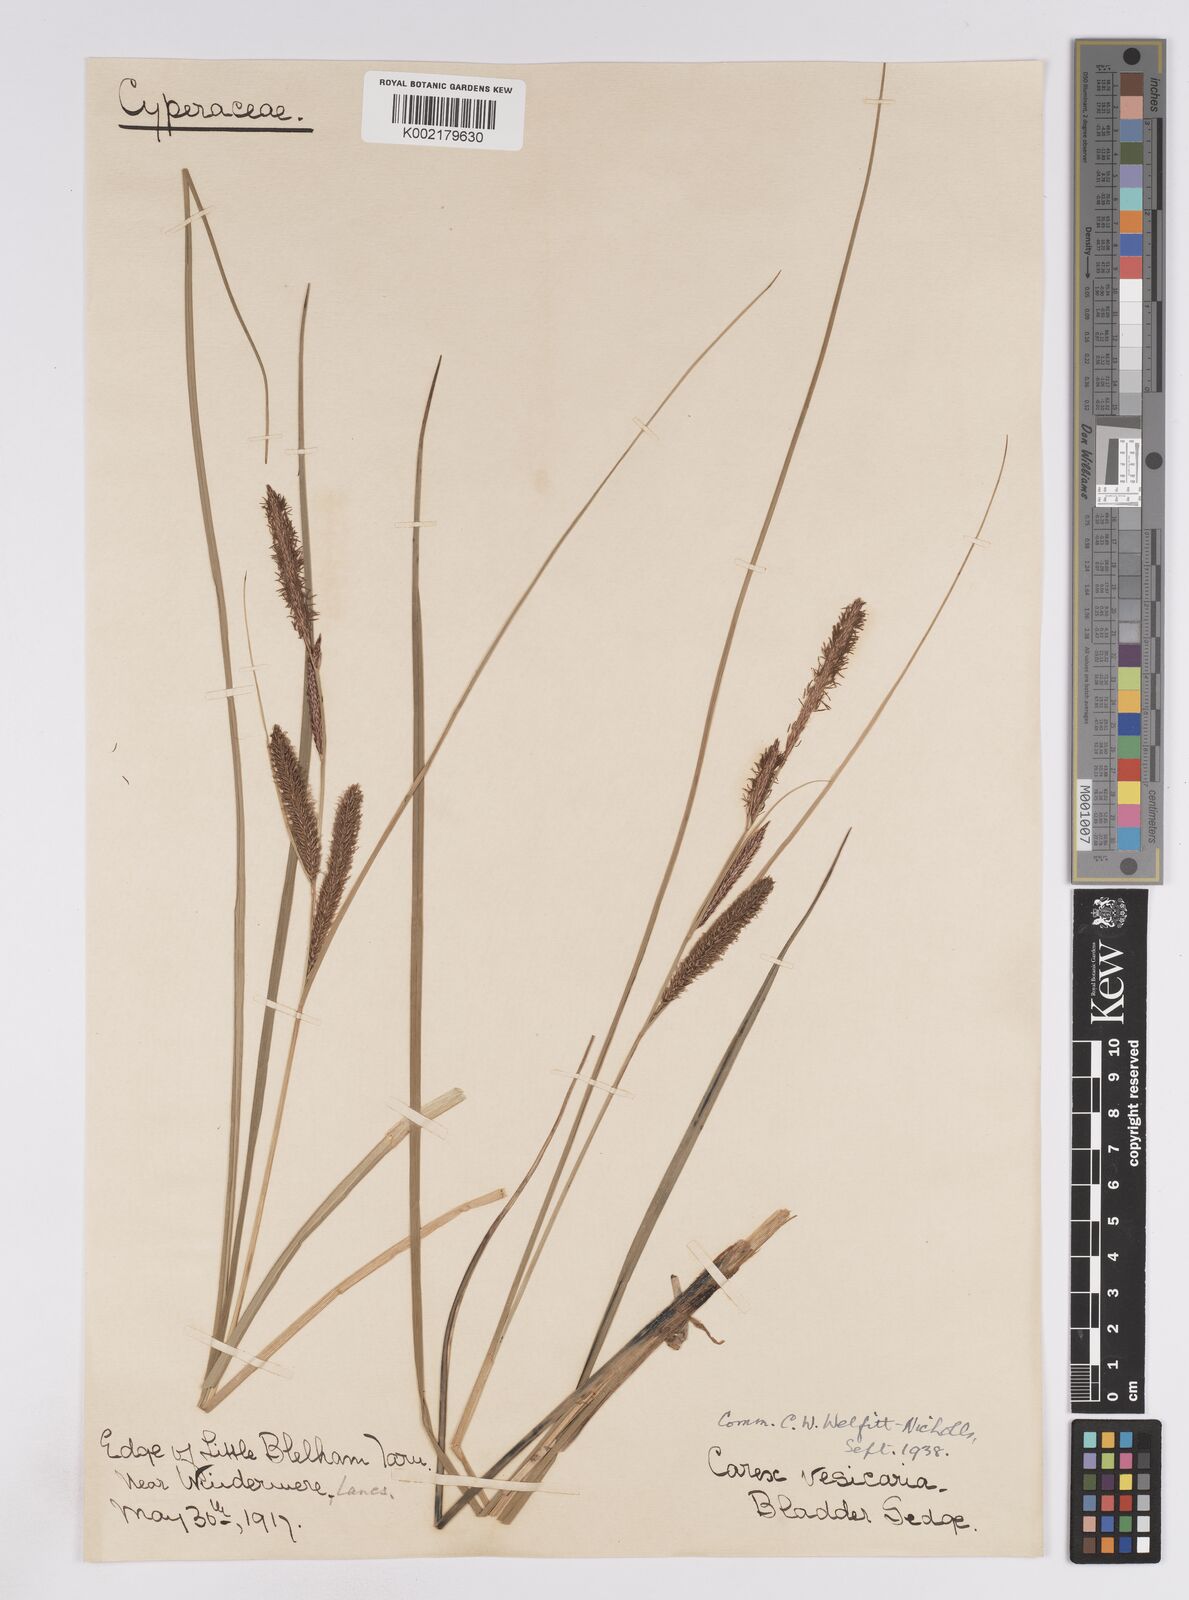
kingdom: Plantae
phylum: Tracheophyta
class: Liliopsida
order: Poales
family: Cyperaceae
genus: Carex
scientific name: Carex rostrata
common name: Bottle sedge
